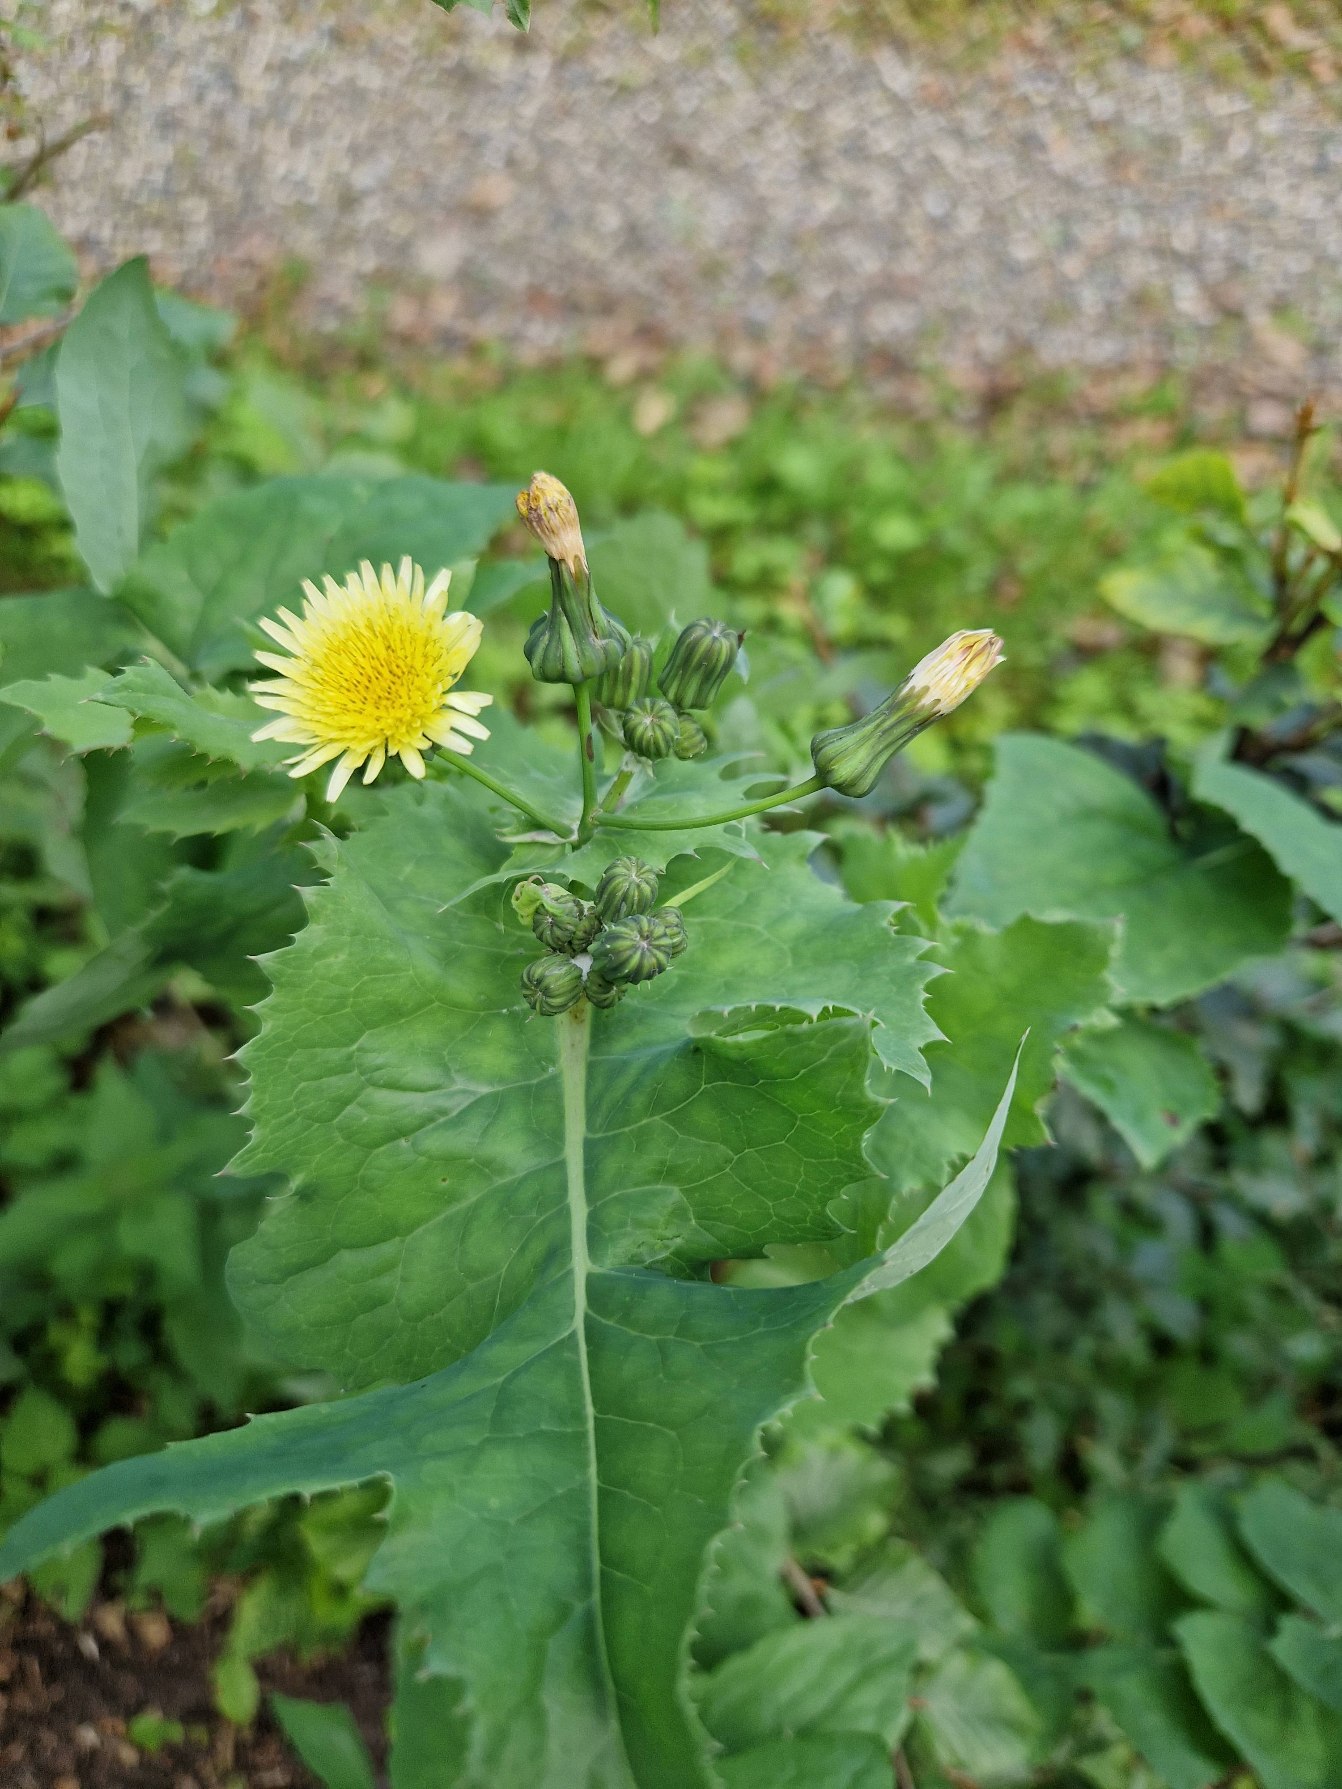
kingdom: Plantae
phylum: Tracheophyta
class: Magnoliopsida
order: Asterales
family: Asteraceae
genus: Sonchus
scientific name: Sonchus oleraceus
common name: Almindelig svinemælk
